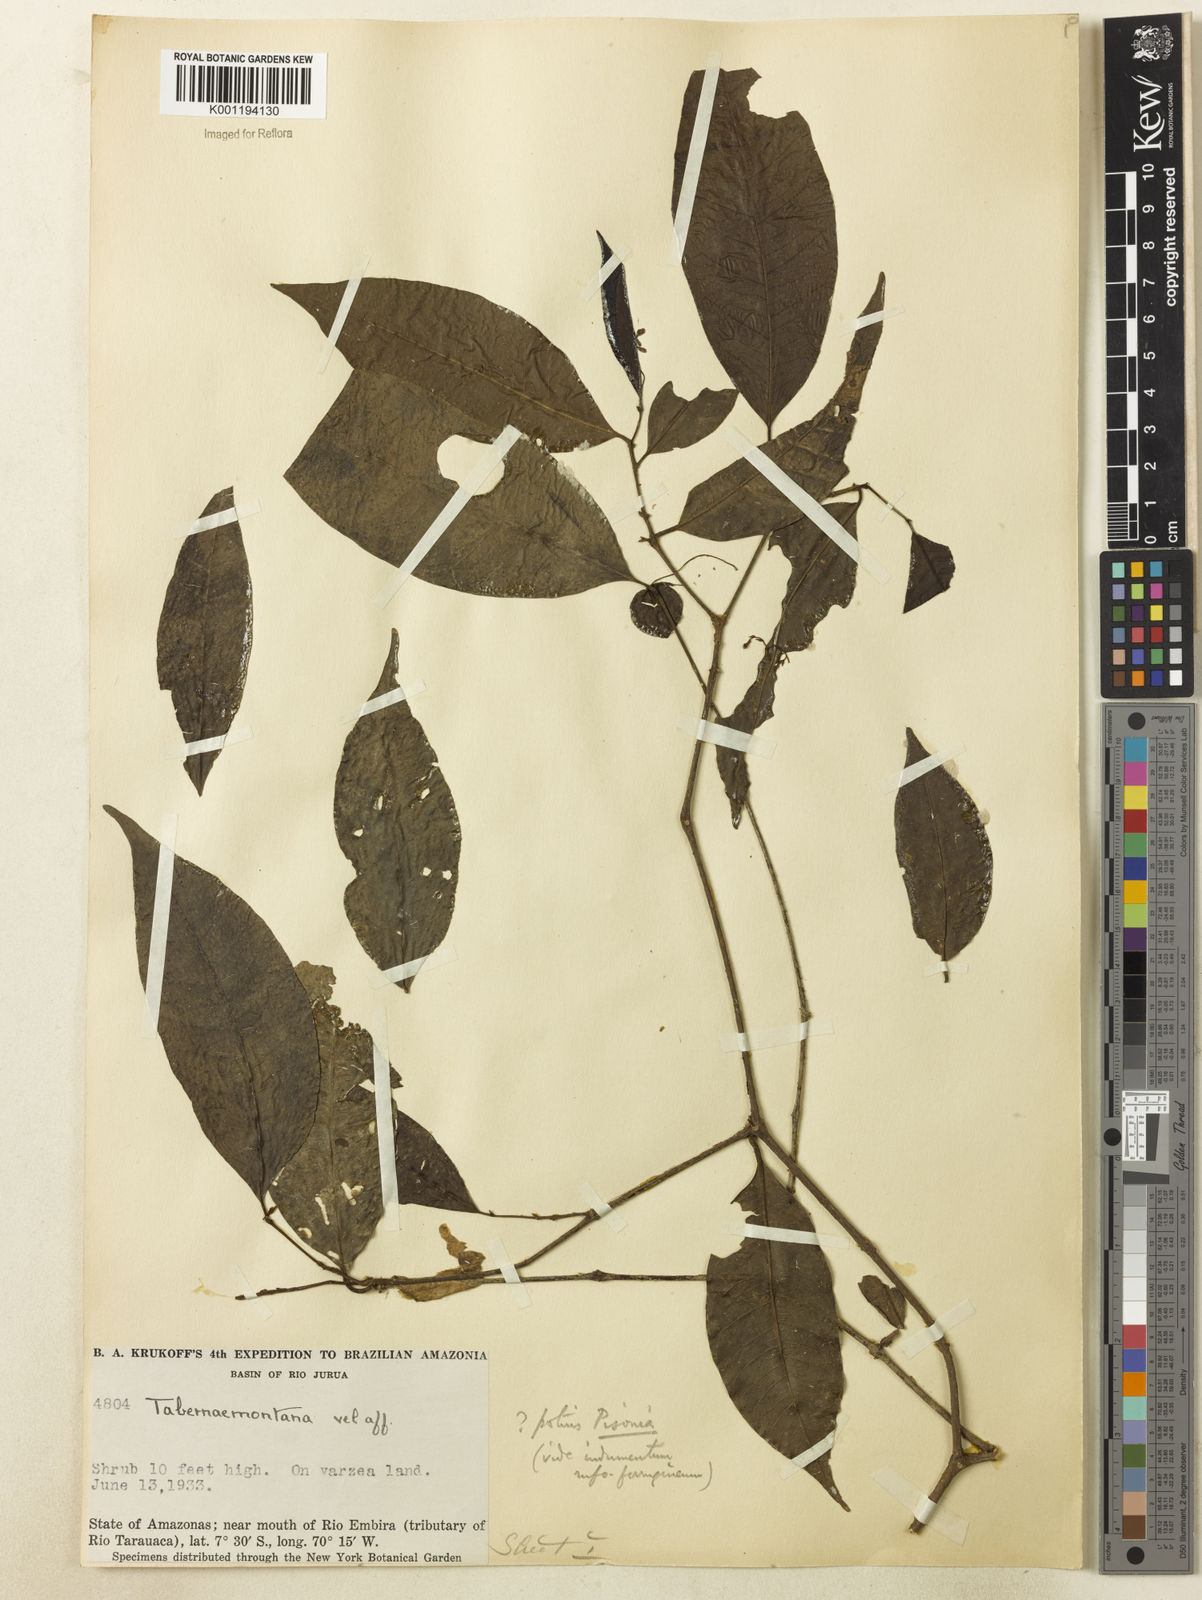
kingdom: Plantae
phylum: Tracheophyta
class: Magnoliopsida
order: Caryophyllales
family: Nyctaginaceae
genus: Guapira
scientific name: Guapira
